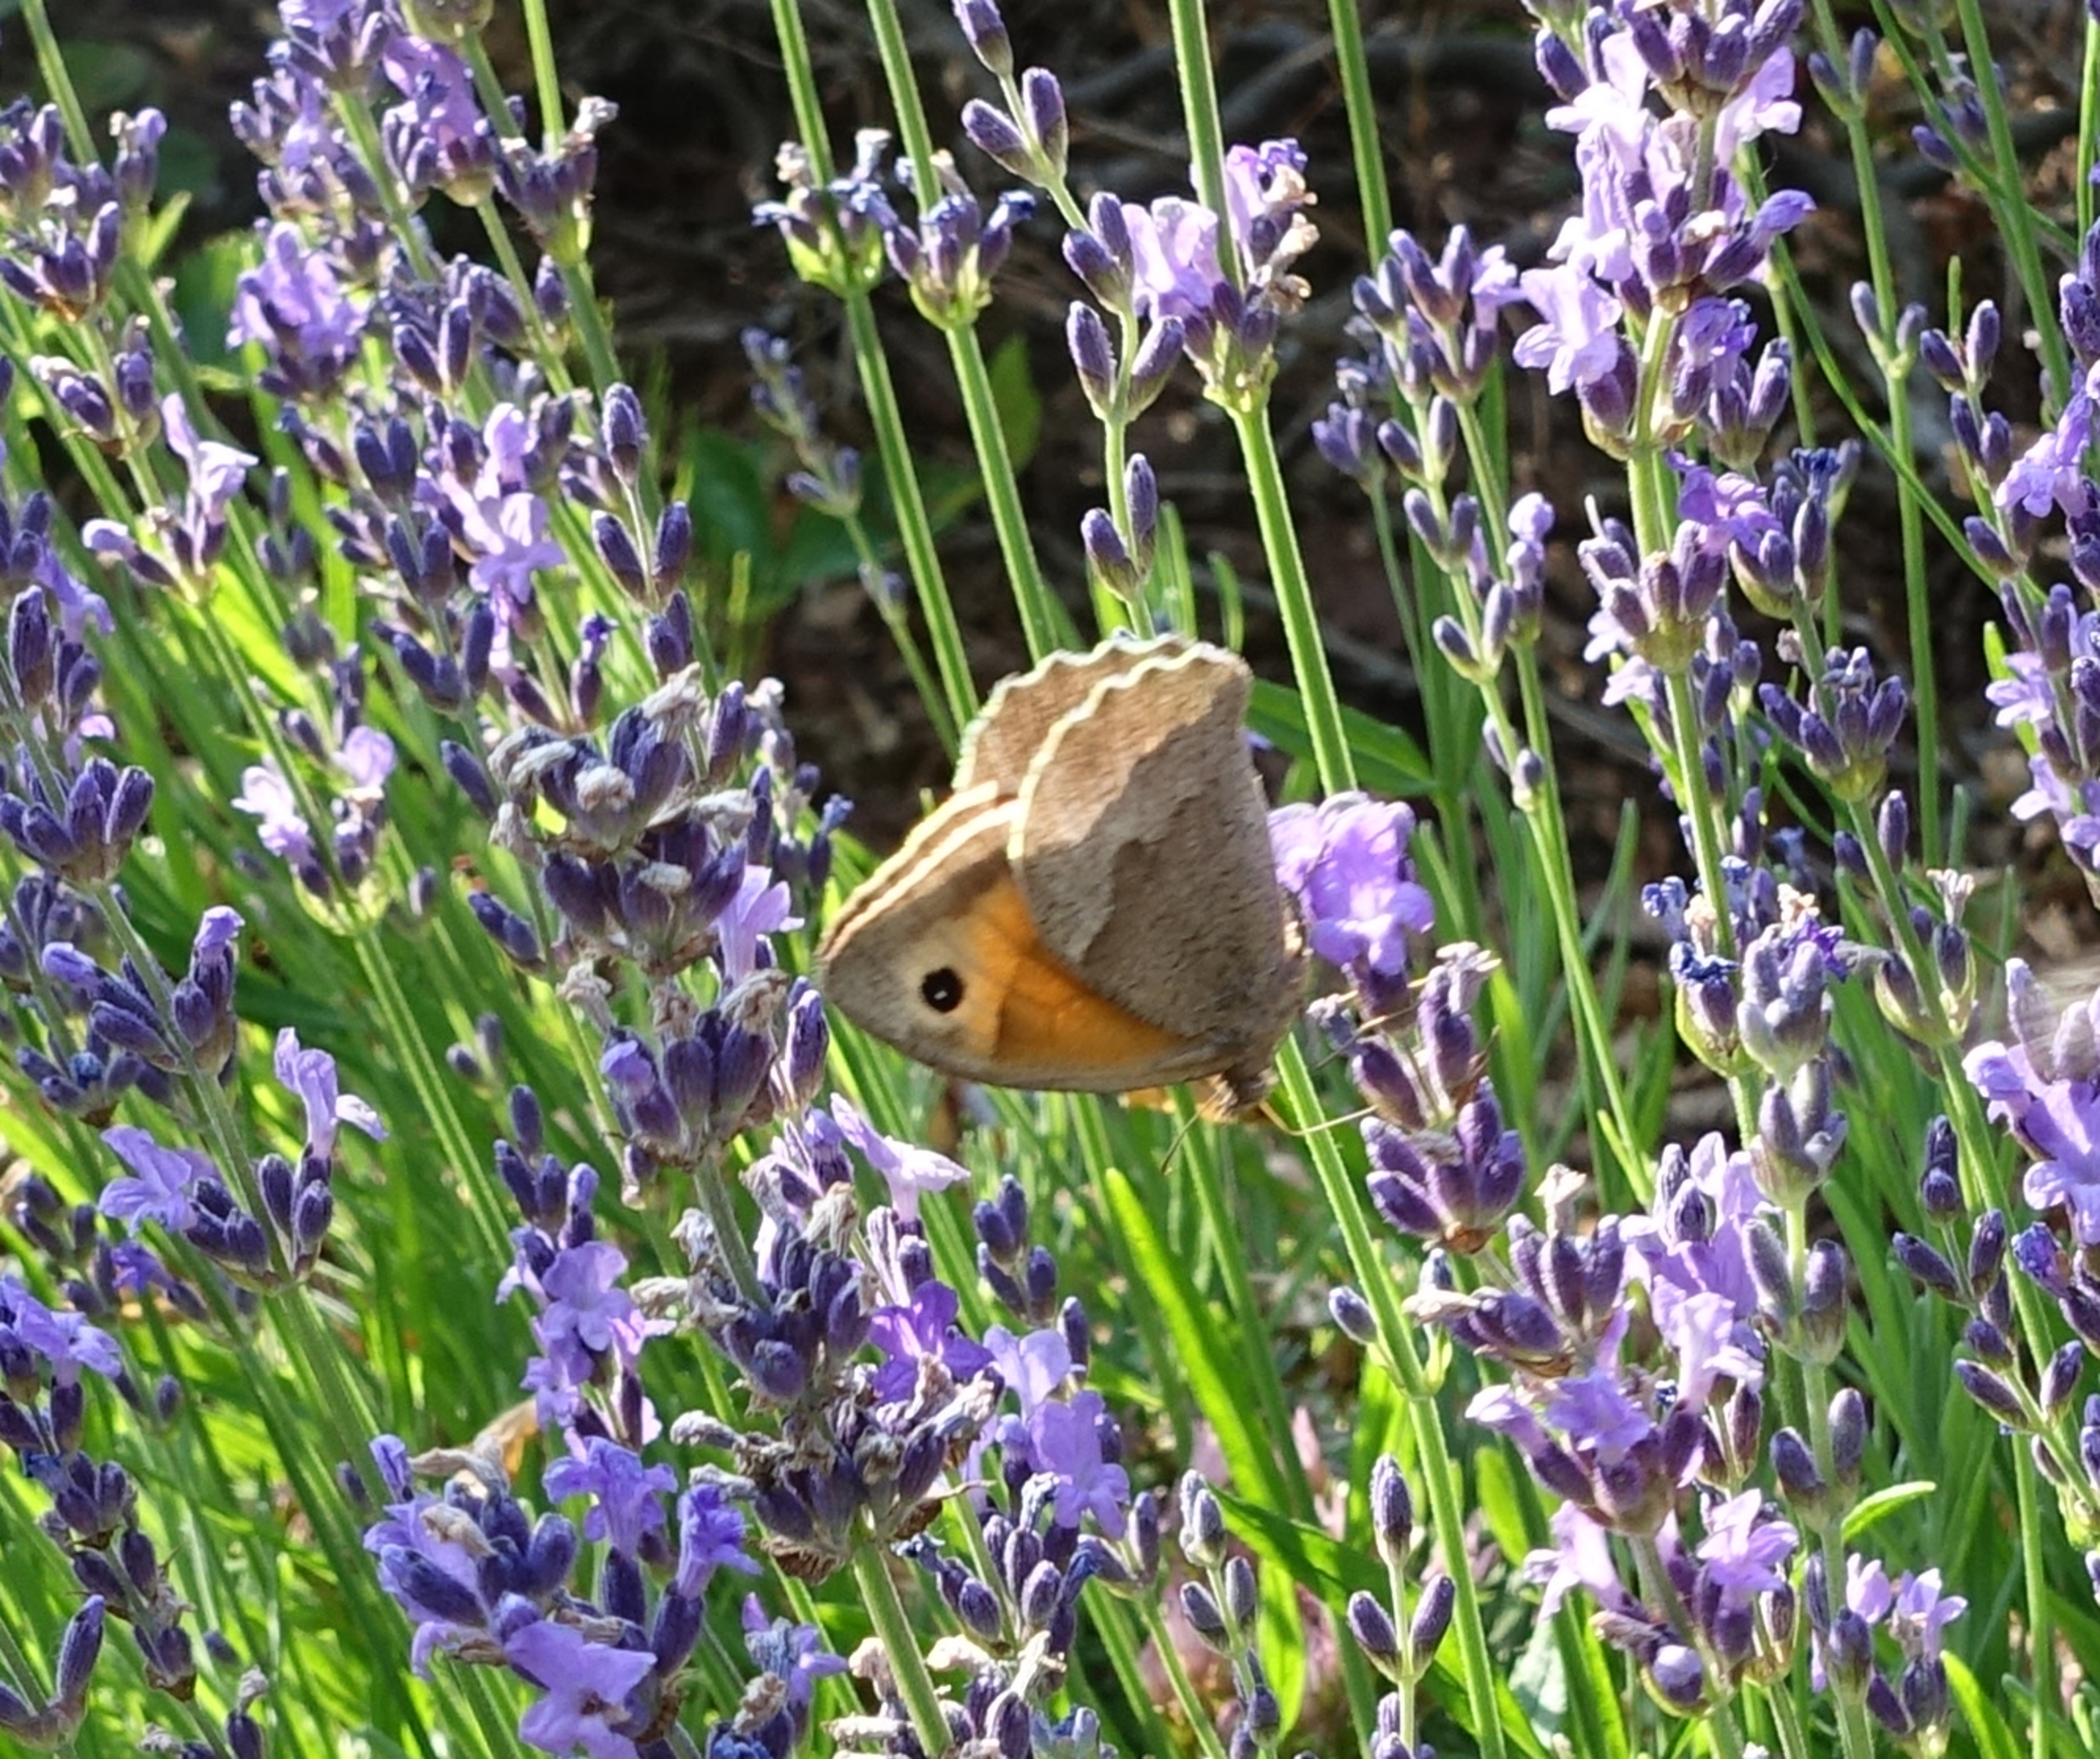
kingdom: Animalia
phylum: Arthropoda
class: Insecta
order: Lepidoptera
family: Nymphalidae
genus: Maniola
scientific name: Maniola jurtina
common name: Græsrandøje
